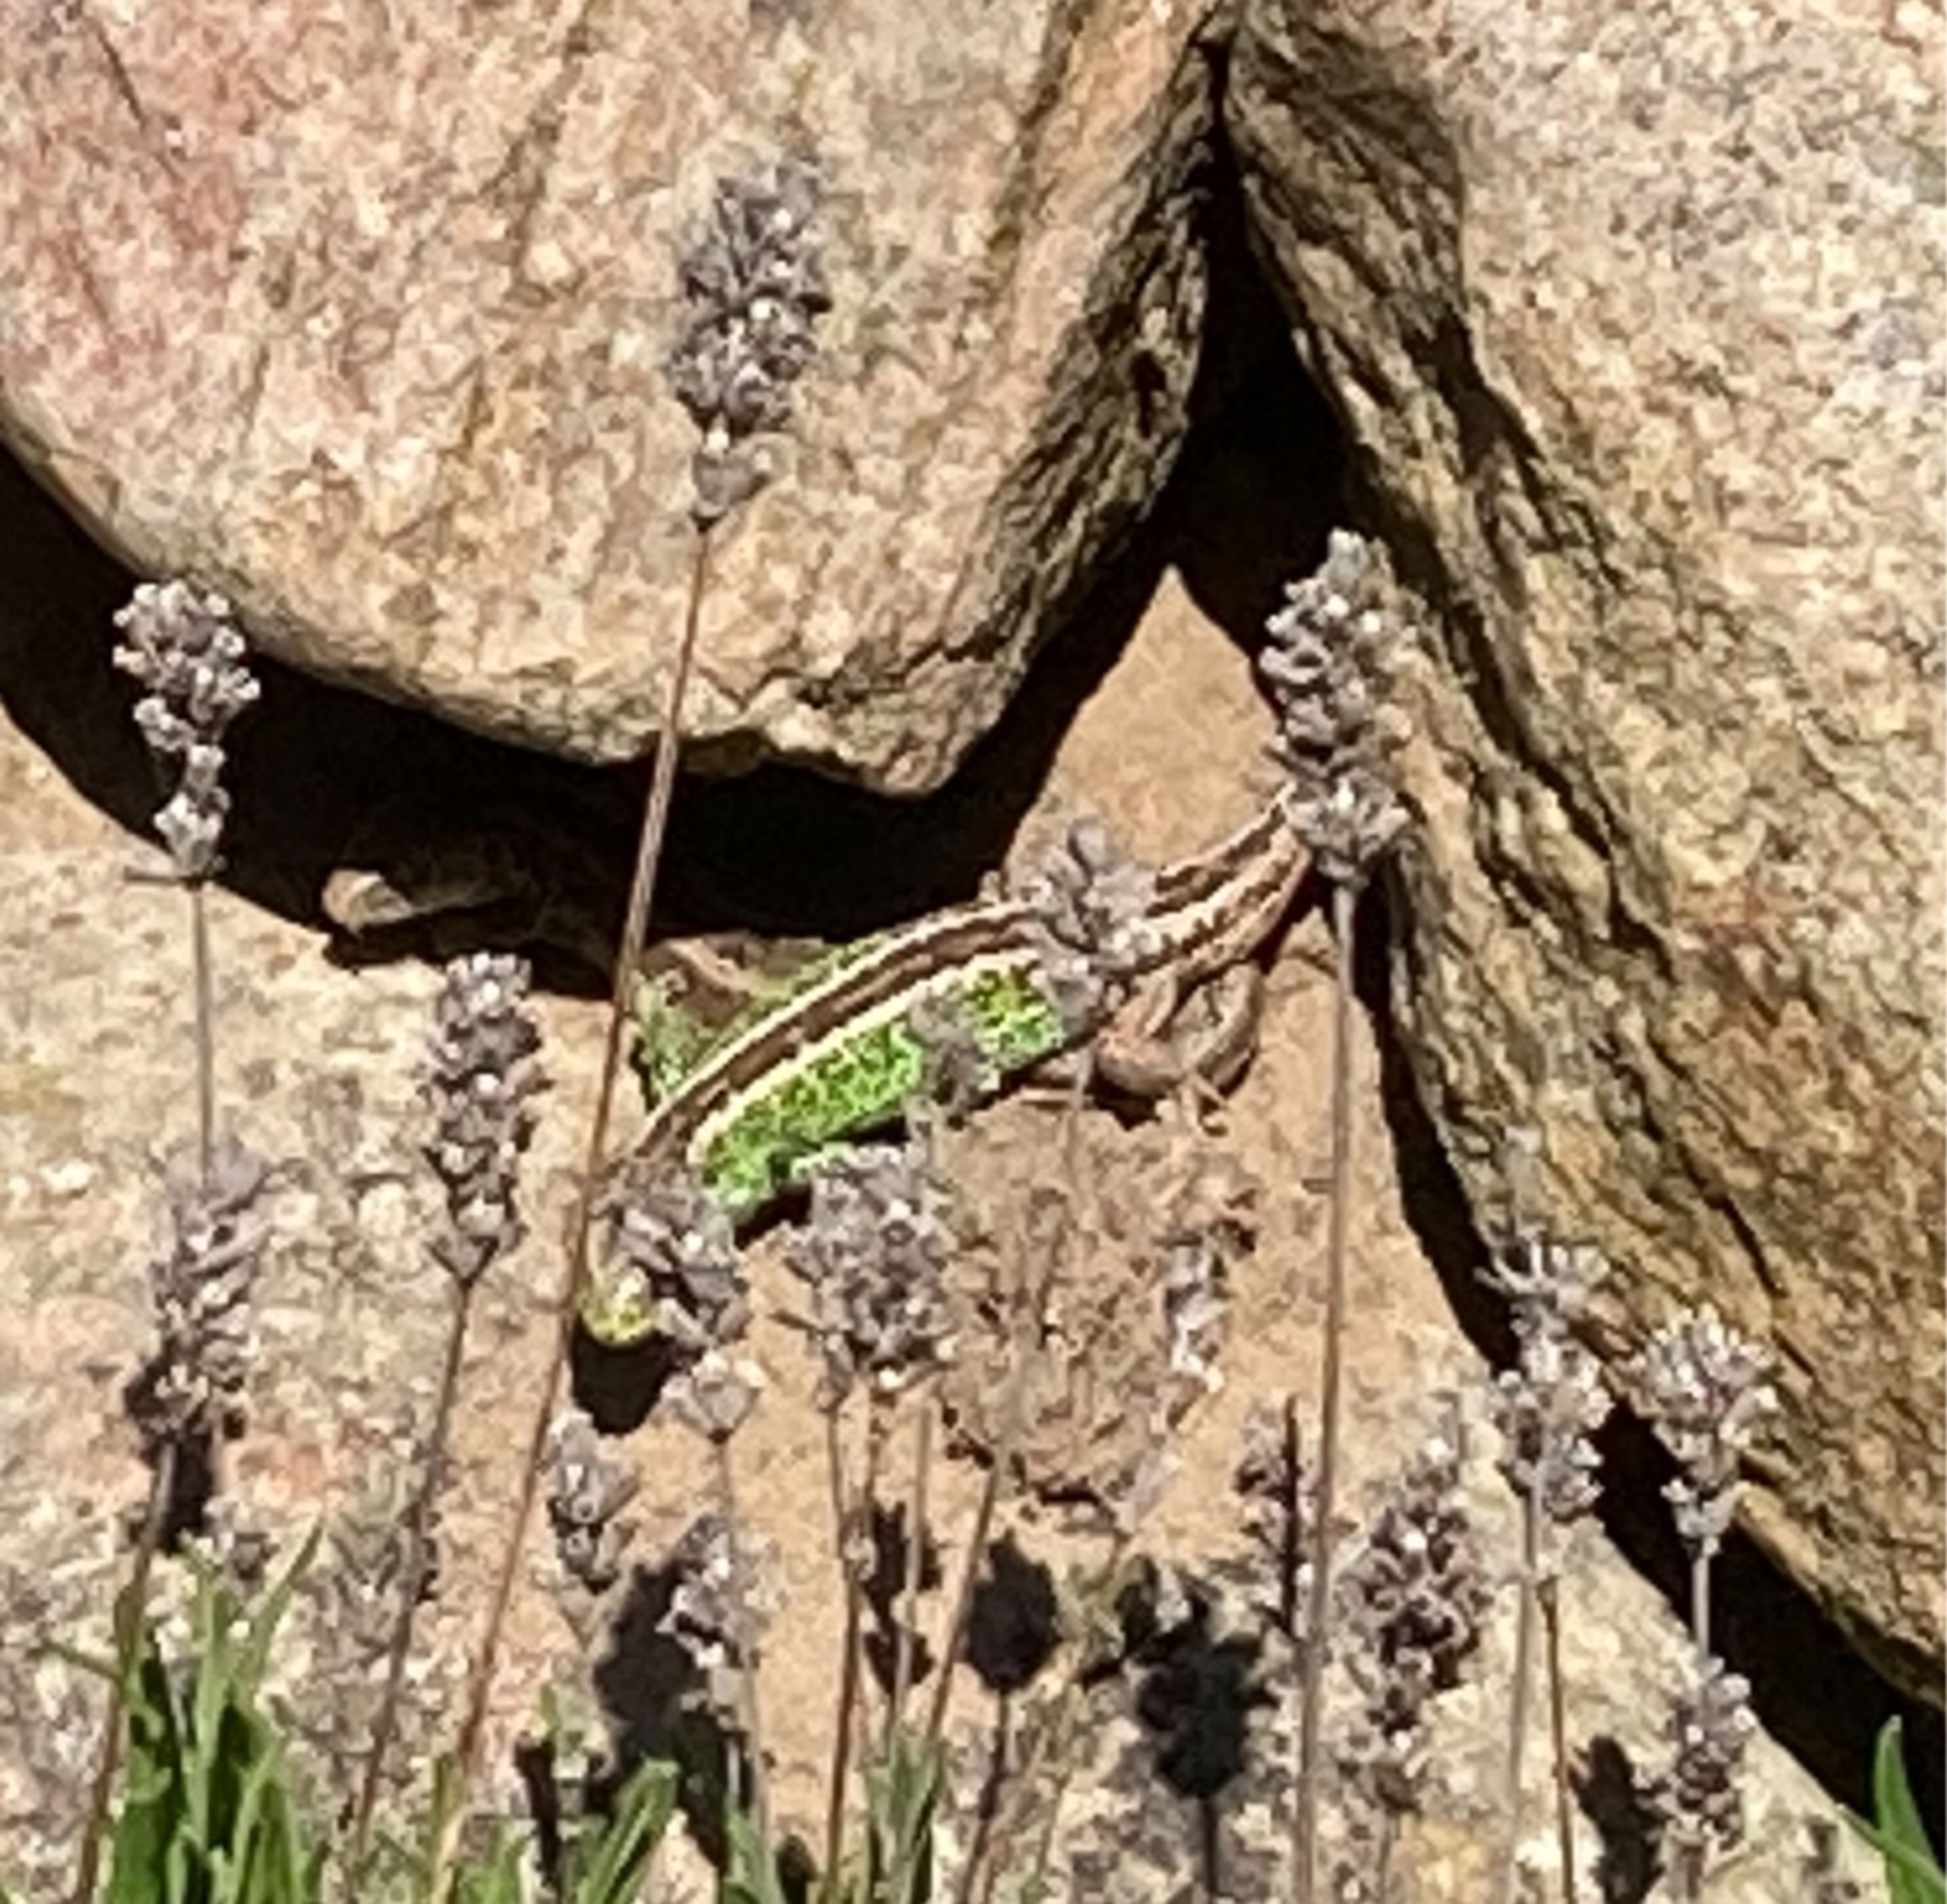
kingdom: Animalia
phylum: Chordata
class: Squamata
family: Lacertidae
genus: Lacerta
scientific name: Lacerta agilis
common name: Markfirben
